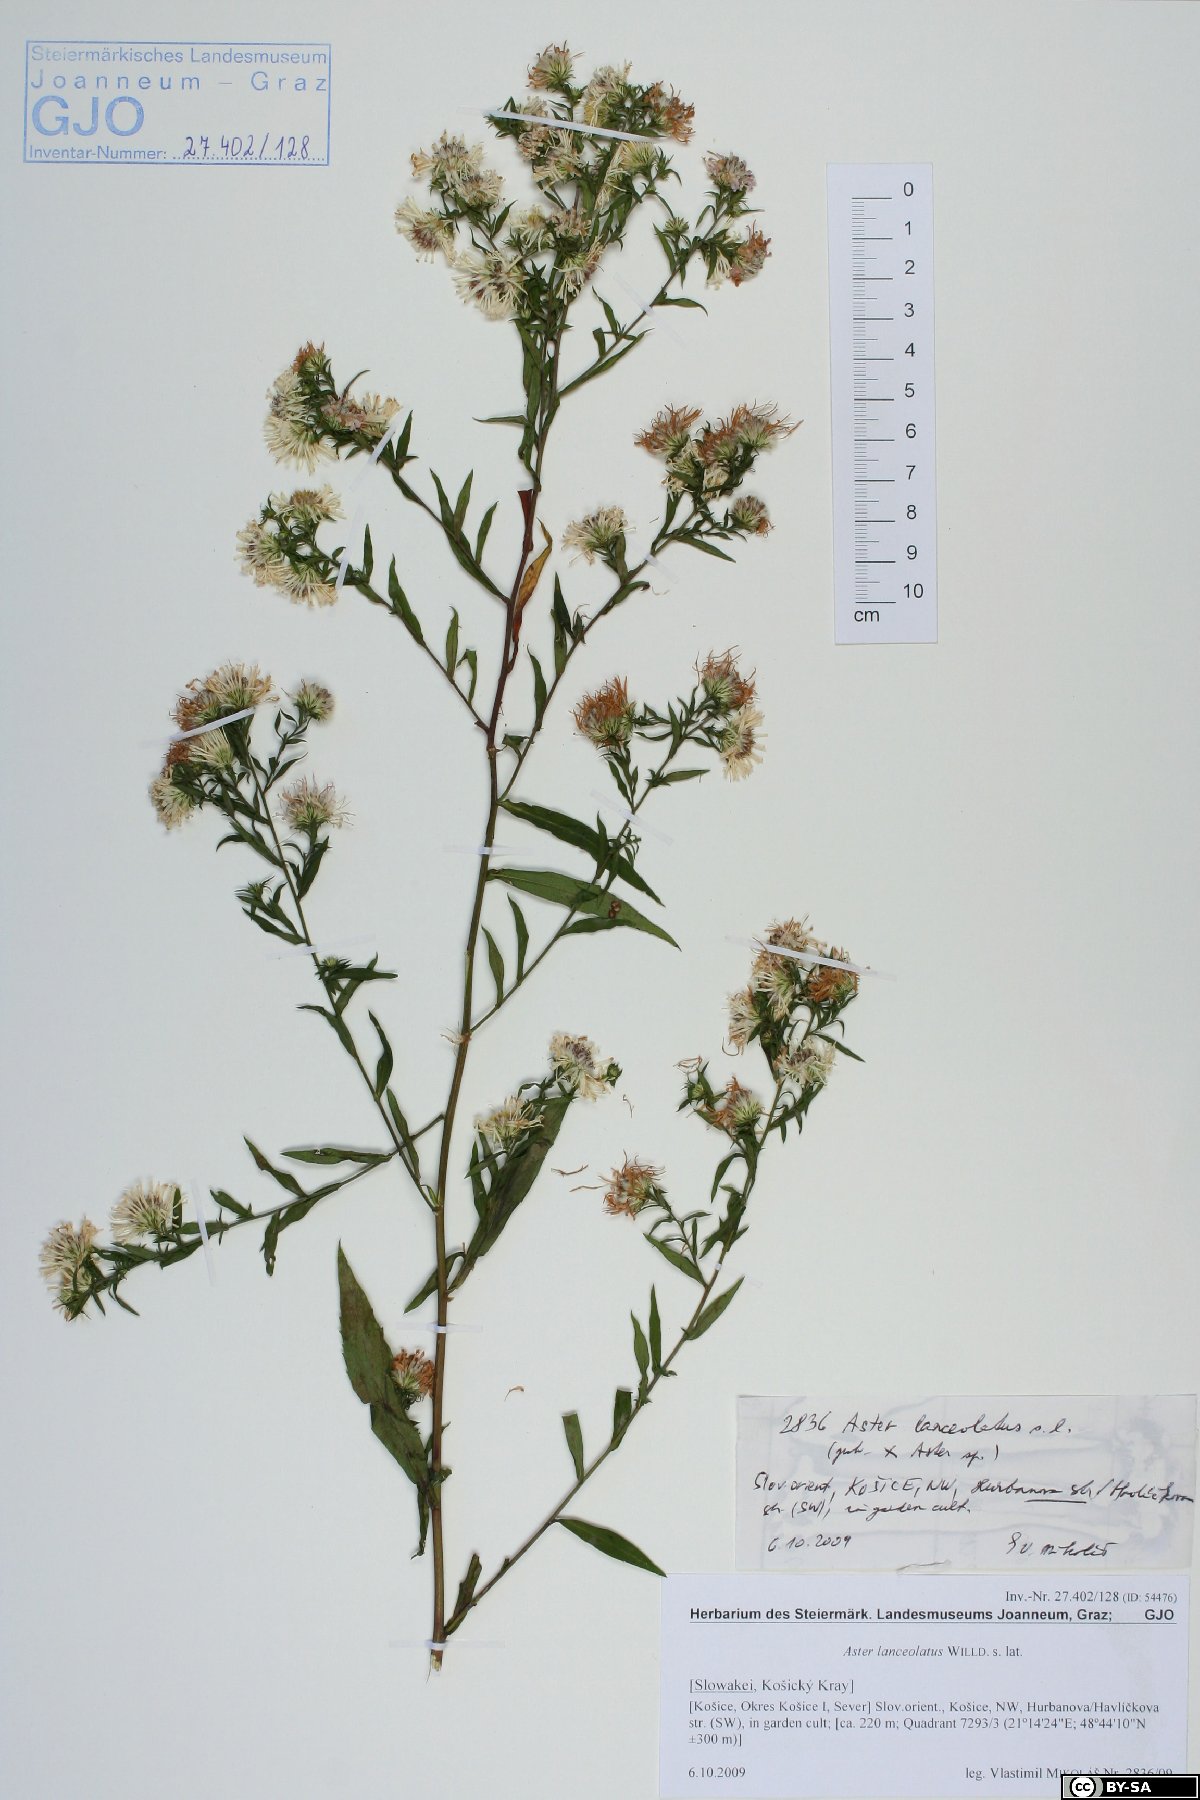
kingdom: Plantae
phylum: Tracheophyta
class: Magnoliopsida
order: Asterales
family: Asteraceae
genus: Symphyotrichum
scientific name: Symphyotrichum lanceolatum
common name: Panicled aster
